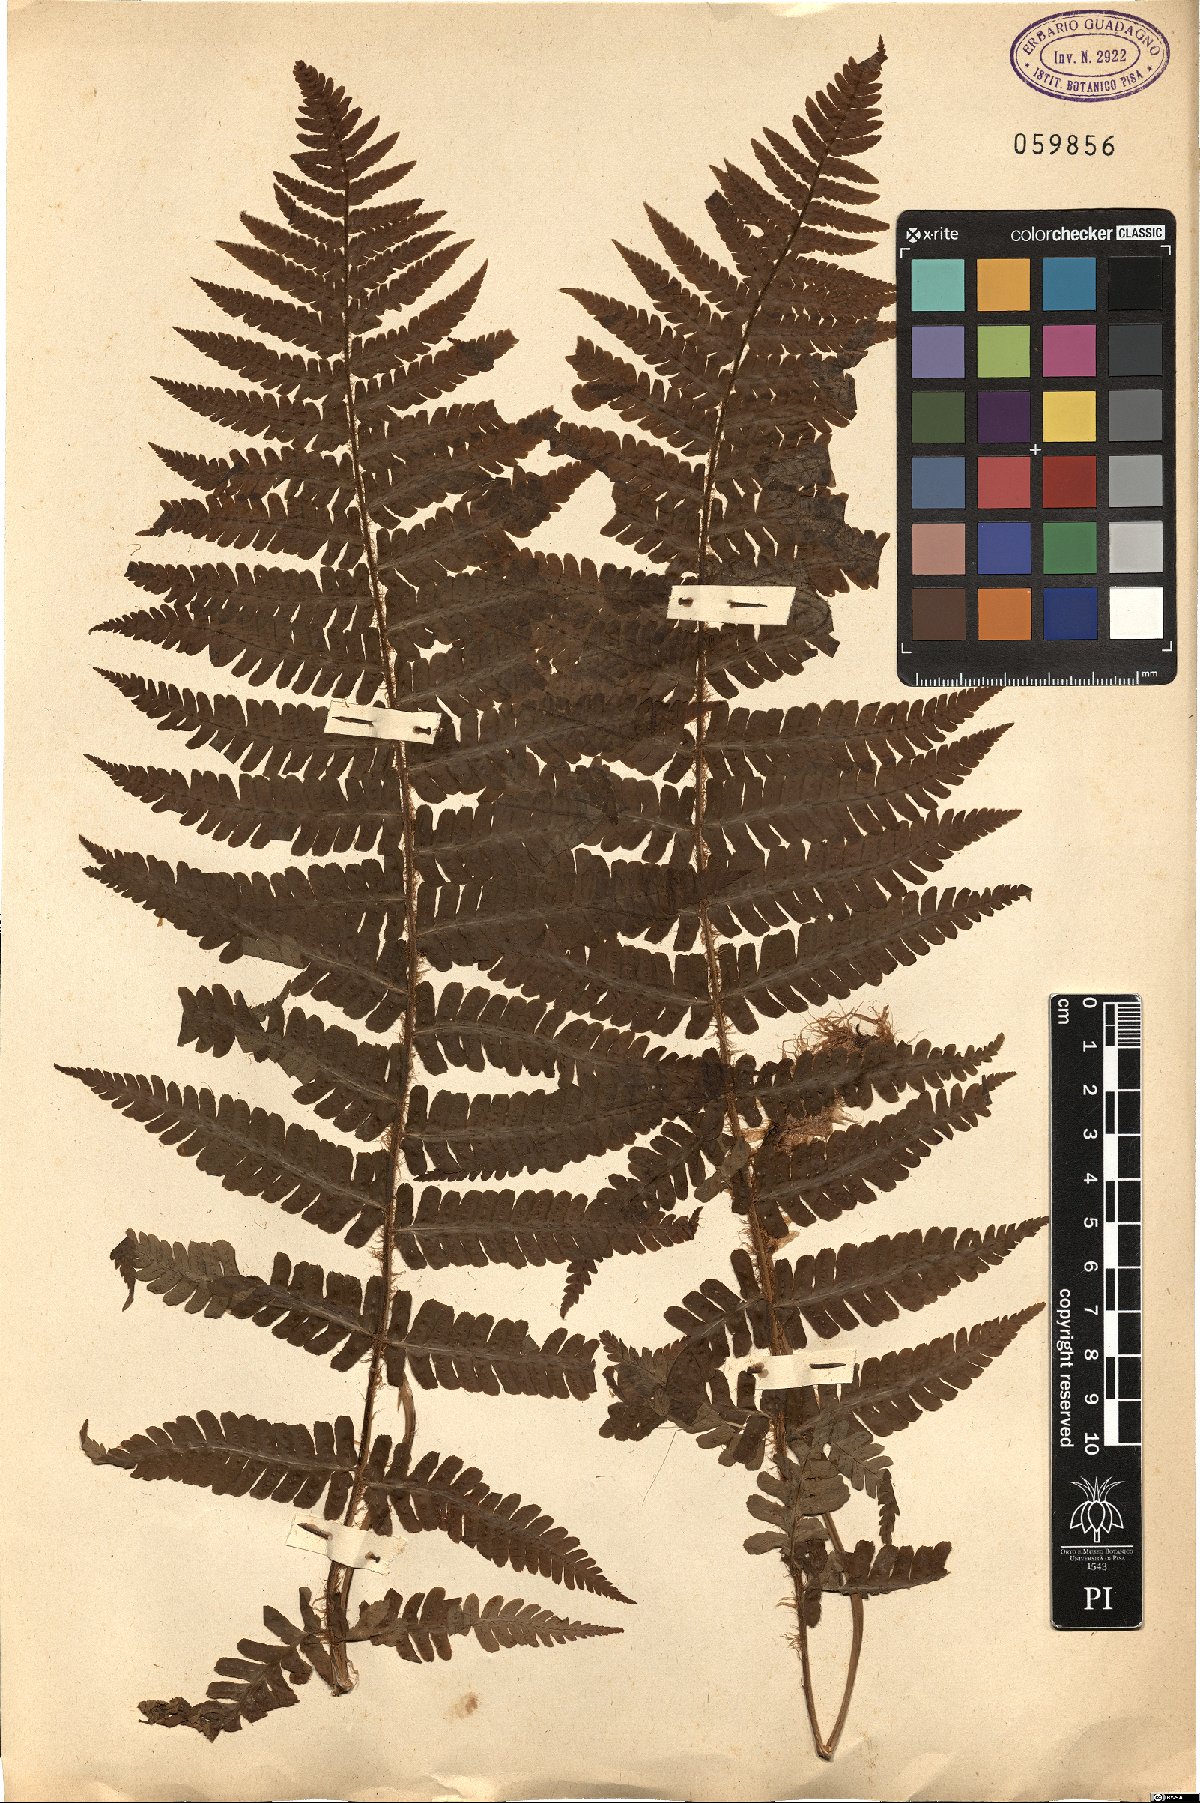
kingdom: Plantae
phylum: Tracheophyta
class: Polypodiopsida
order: Polypodiales
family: Dryopteridaceae
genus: Dryopteris
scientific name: Dryopteris
